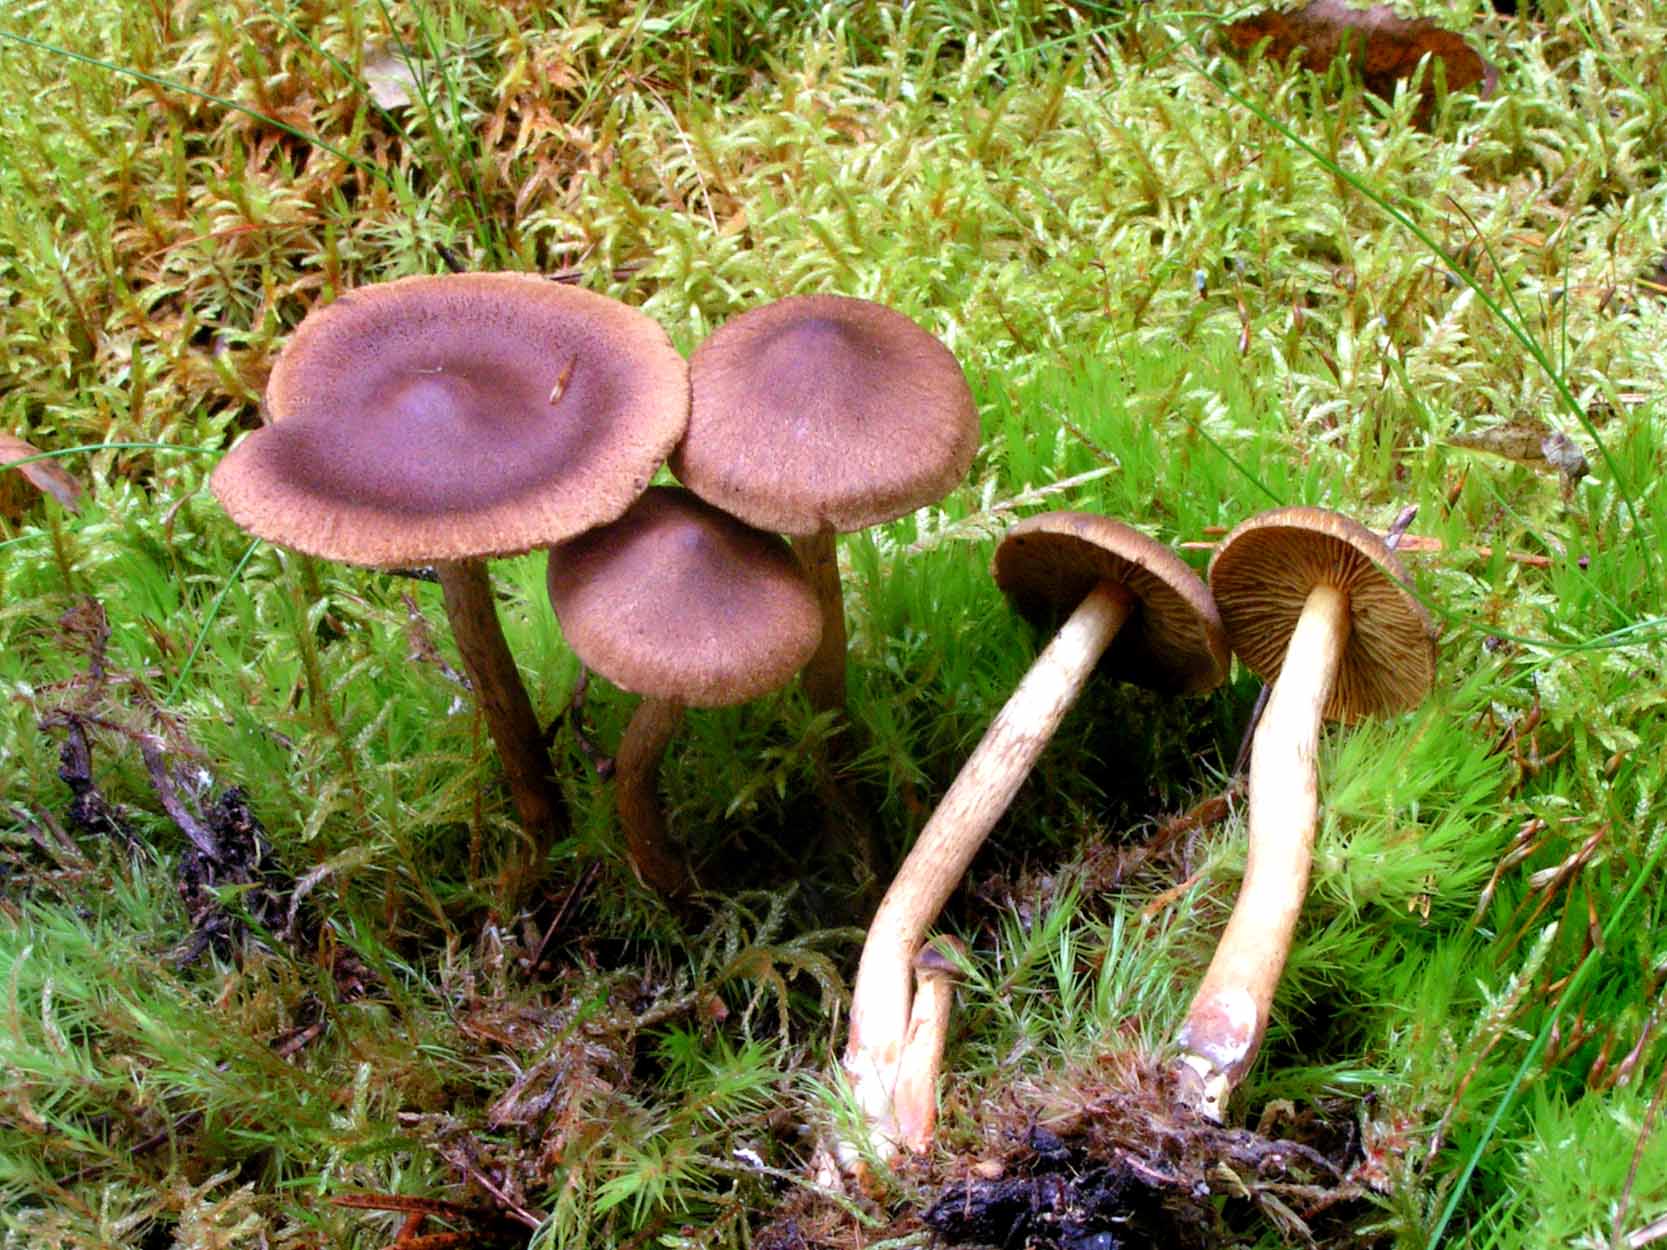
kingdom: Fungi
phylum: Basidiomycota
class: Agaricomycetes
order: Agaricales
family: Cortinariaceae
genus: Cortinarius
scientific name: Cortinarius
